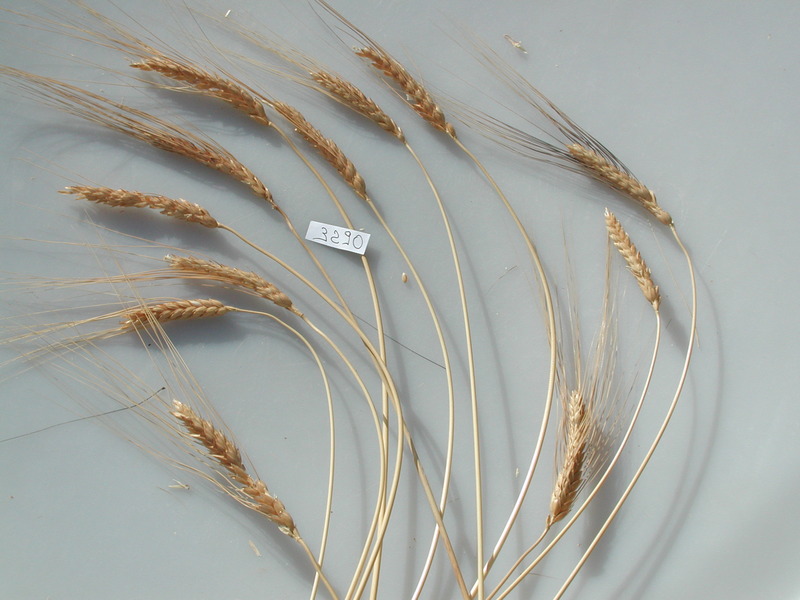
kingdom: Plantae
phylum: Tracheophyta
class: Liliopsida
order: Poales
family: Poaceae
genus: Triticum
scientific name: Triticum turgidum
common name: Wheat
